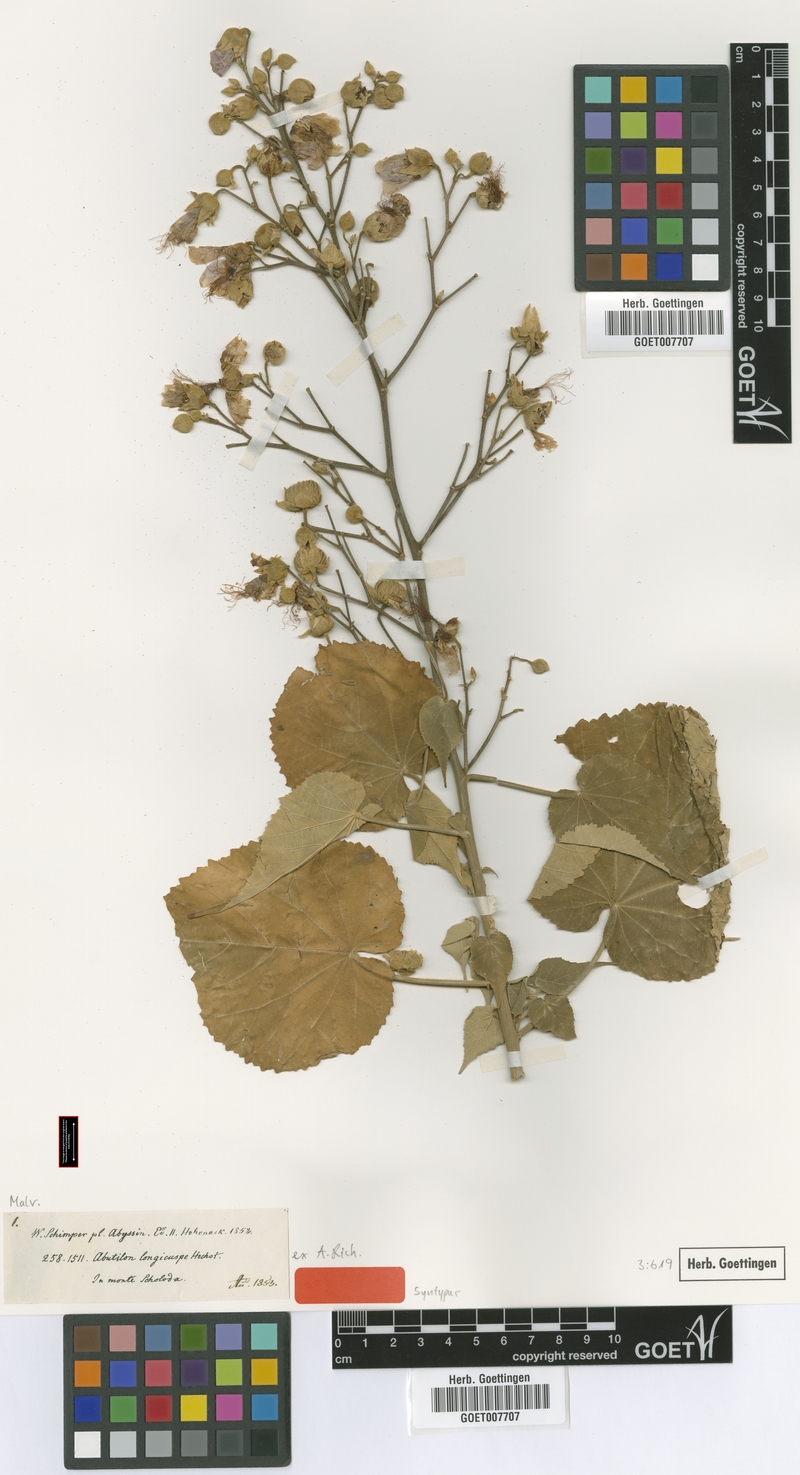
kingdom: Plantae
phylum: Tracheophyta
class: Magnoliopsida
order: Malvales
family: Malvaceae
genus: Abutilon
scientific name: Abutilon longicuspe
